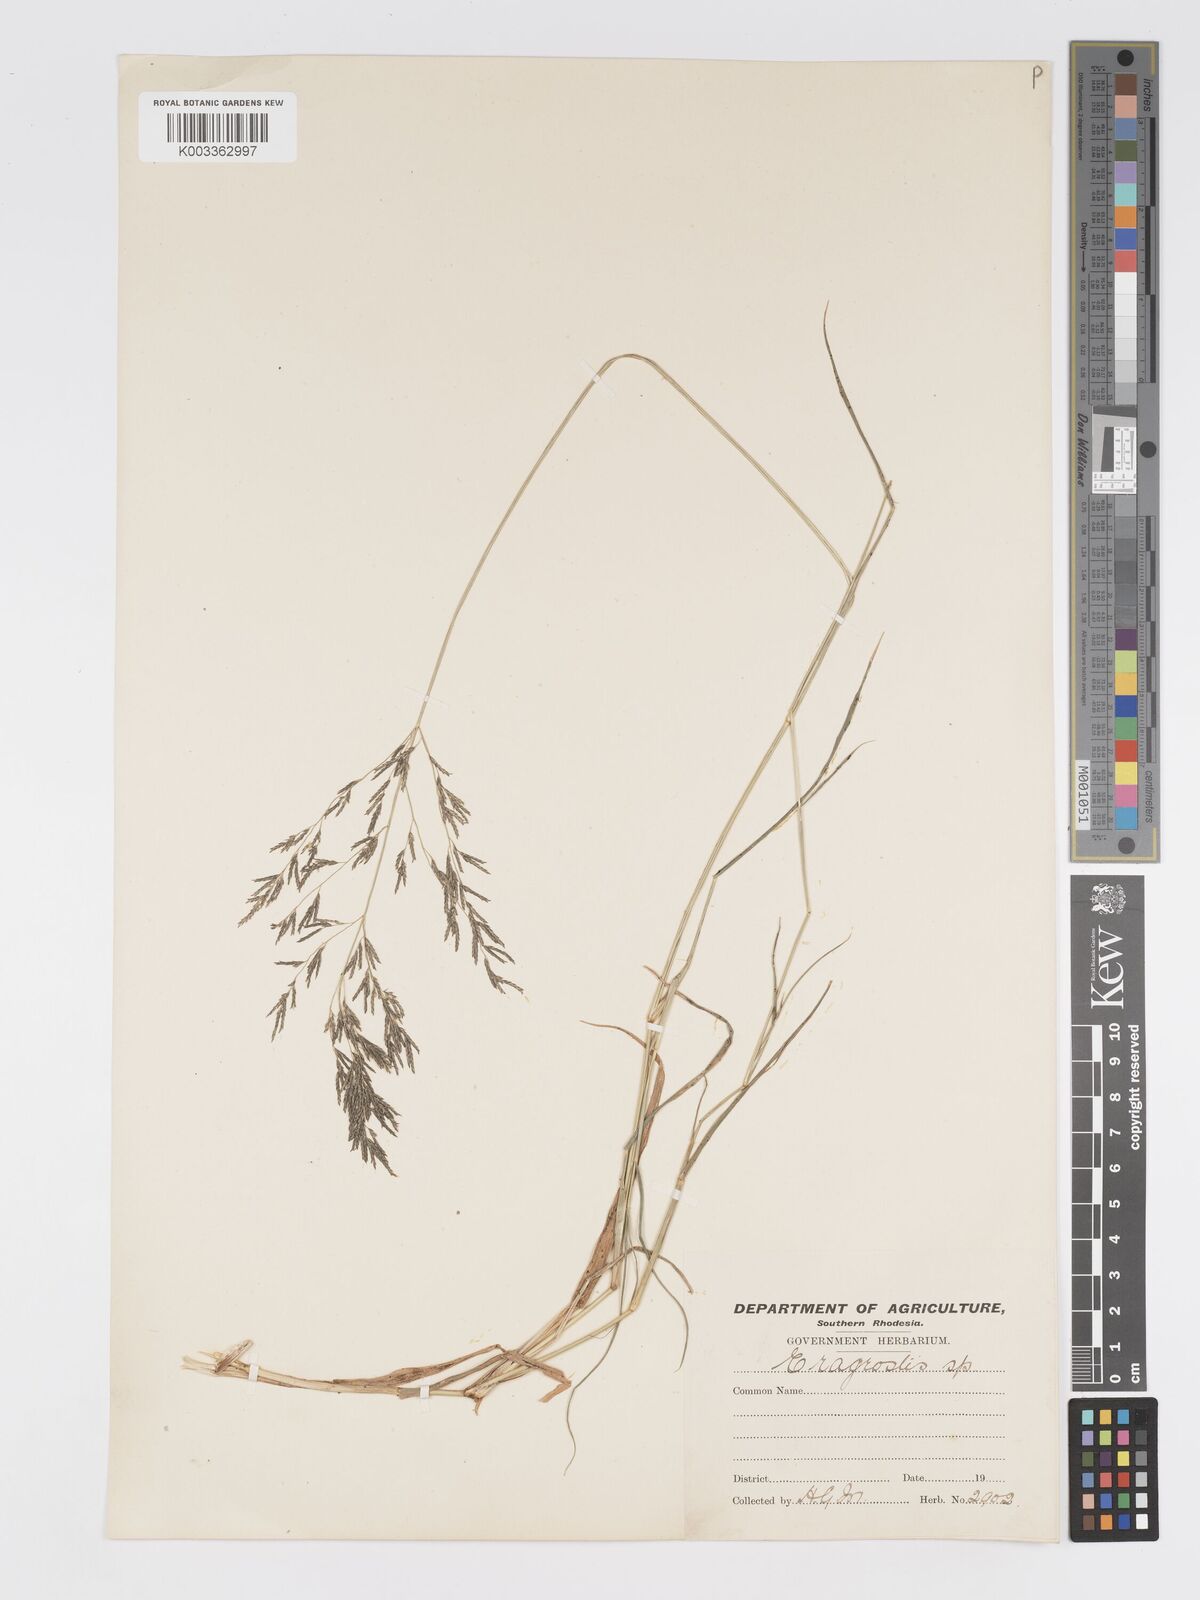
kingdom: Plantae
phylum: Tracheophyta
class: Liliopsida
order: Poales
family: Poaceae
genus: Eragrostis
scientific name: Eragrostis cylindriflora
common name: Cylinderflower lovegrass
